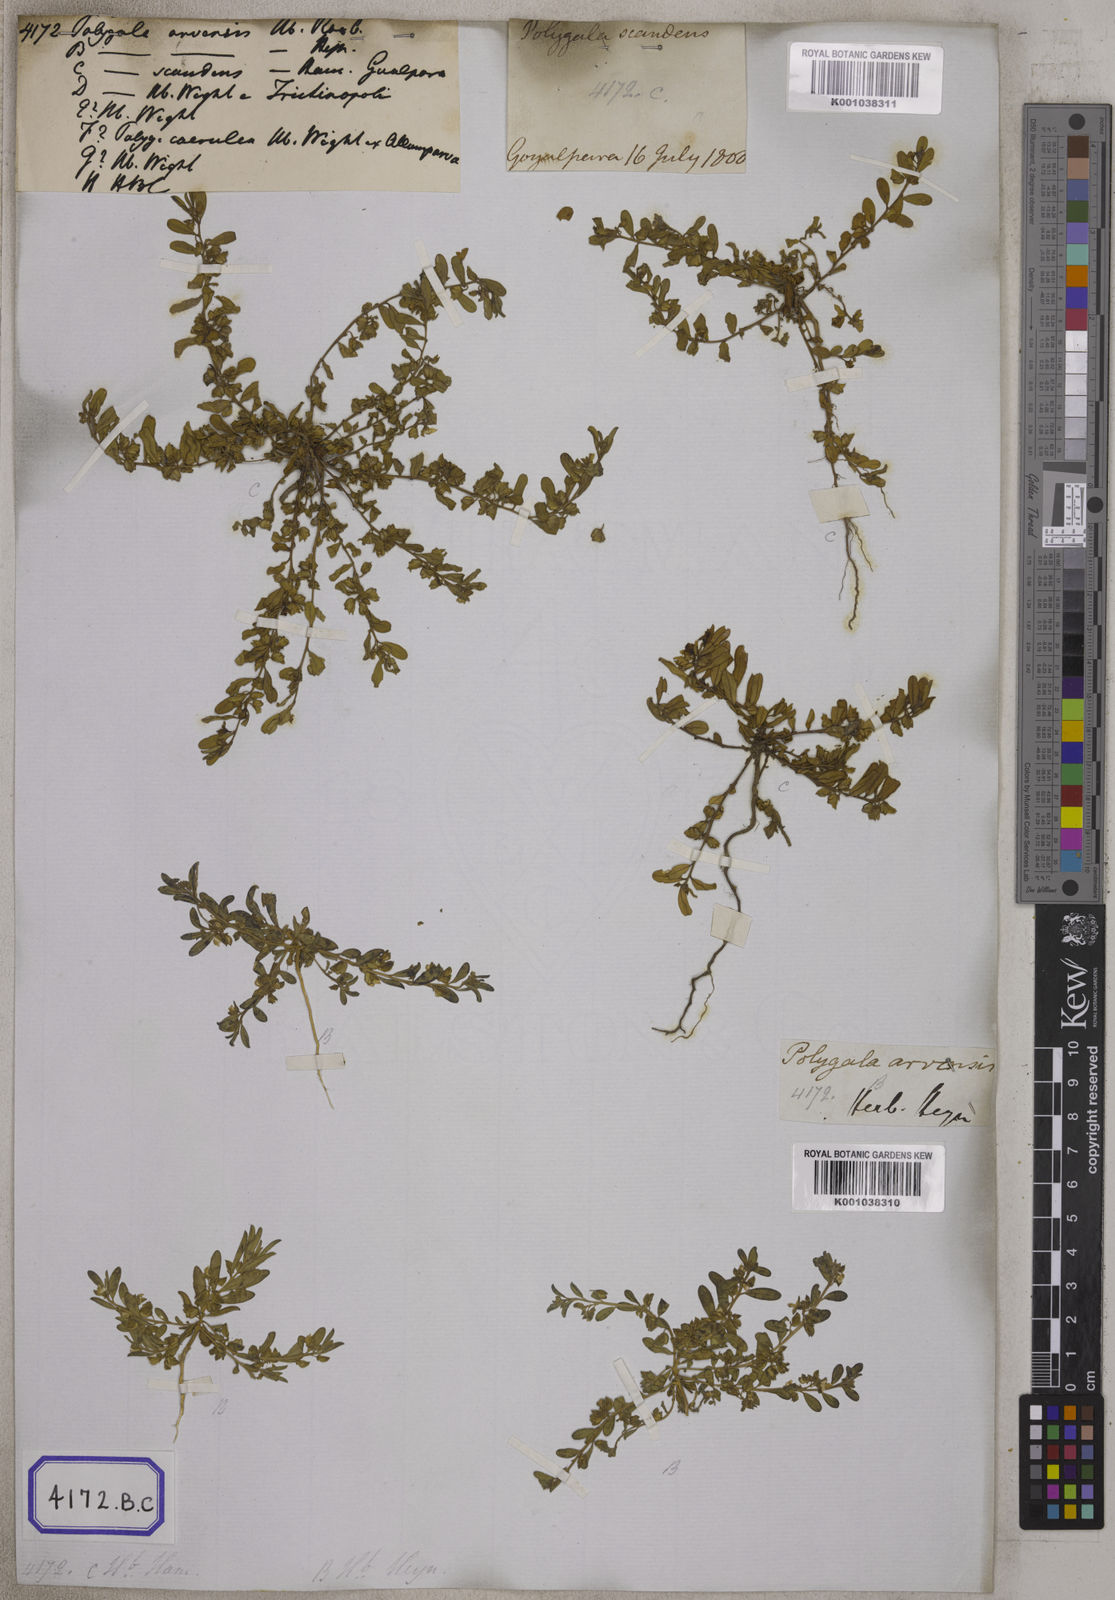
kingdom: Plantae
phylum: Tracheophyta
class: Magnoliopsida
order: Fabales
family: Polygalaceae
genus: Polygala
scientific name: Polygala
